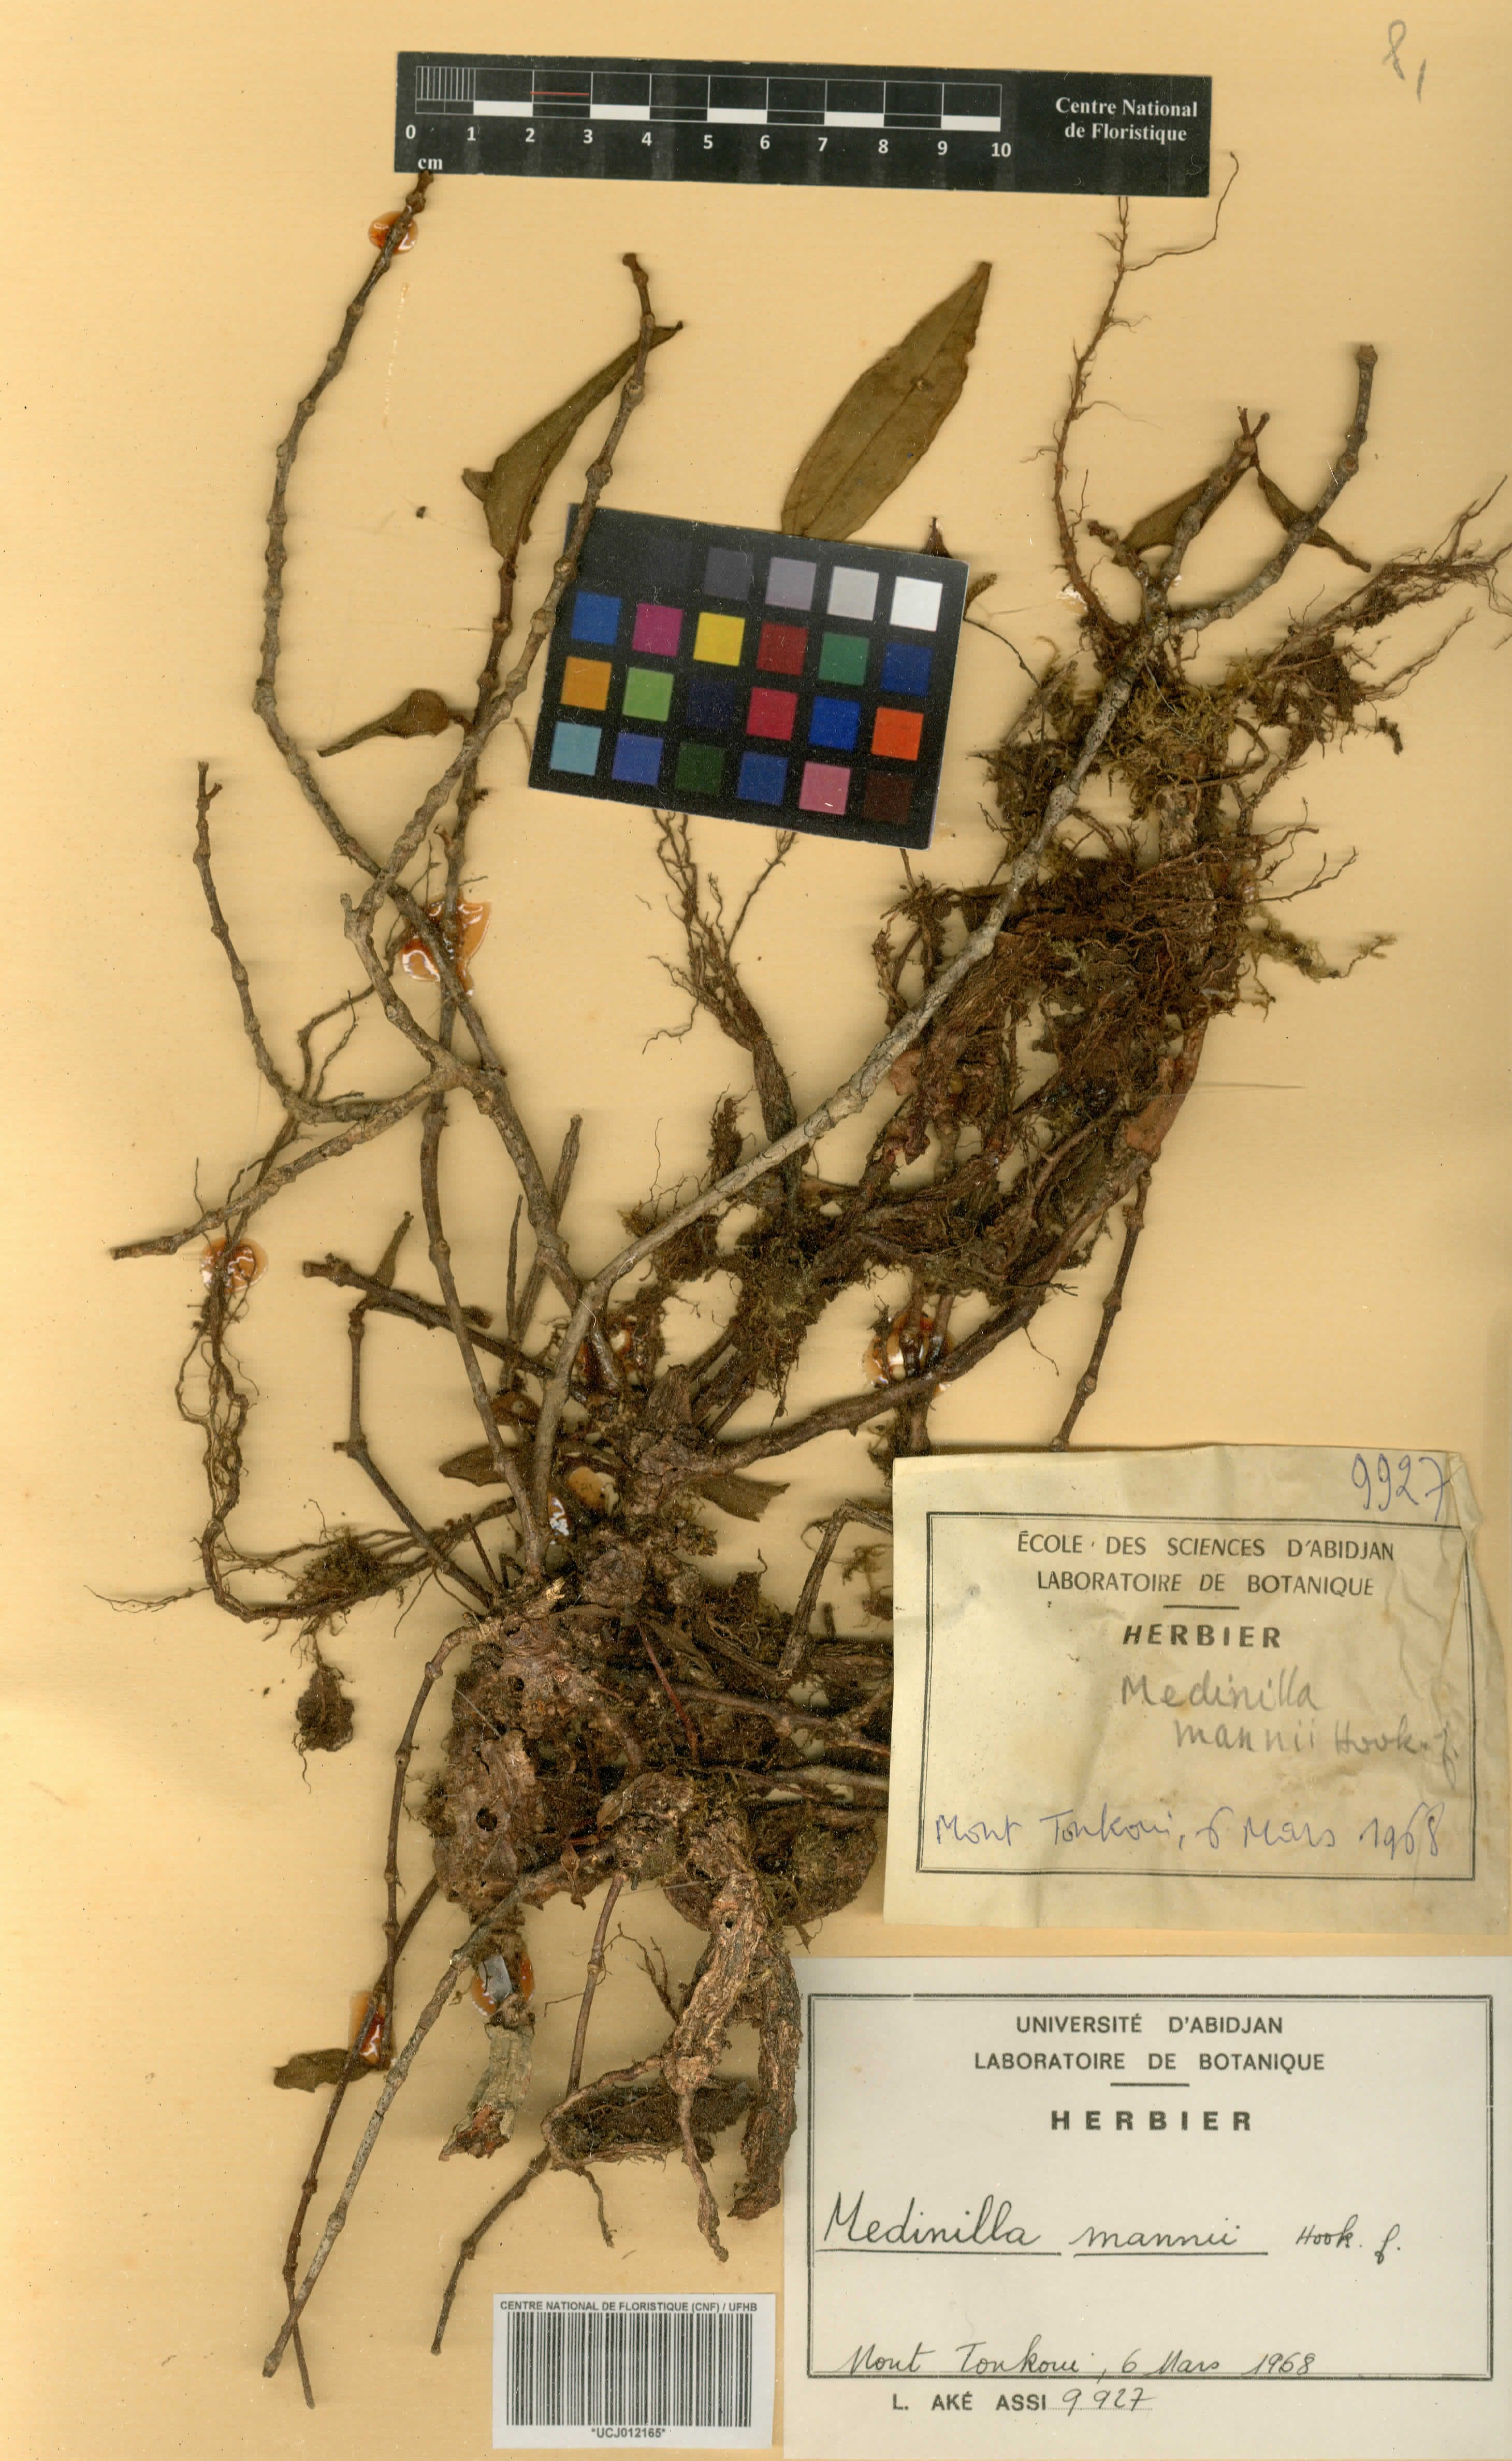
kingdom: Plantae
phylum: Tracheophyta
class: Magnoliopsida
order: Myrtales
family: Melastomataceae
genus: Medinilla
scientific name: Medinilla mannii
